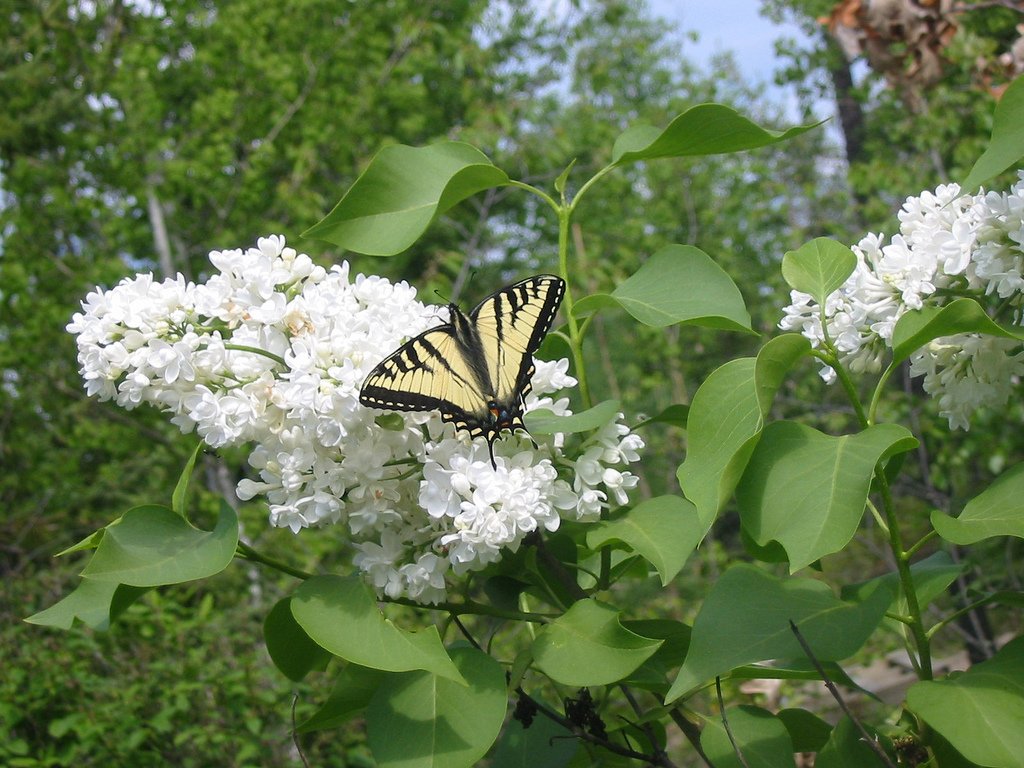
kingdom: Animalia
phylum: Arthropoda
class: Insecta
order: Lepidoptera
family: Papilionidae
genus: Pterourus
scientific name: Pterourus canadensis
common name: Canadian Tiger Swallowtail
